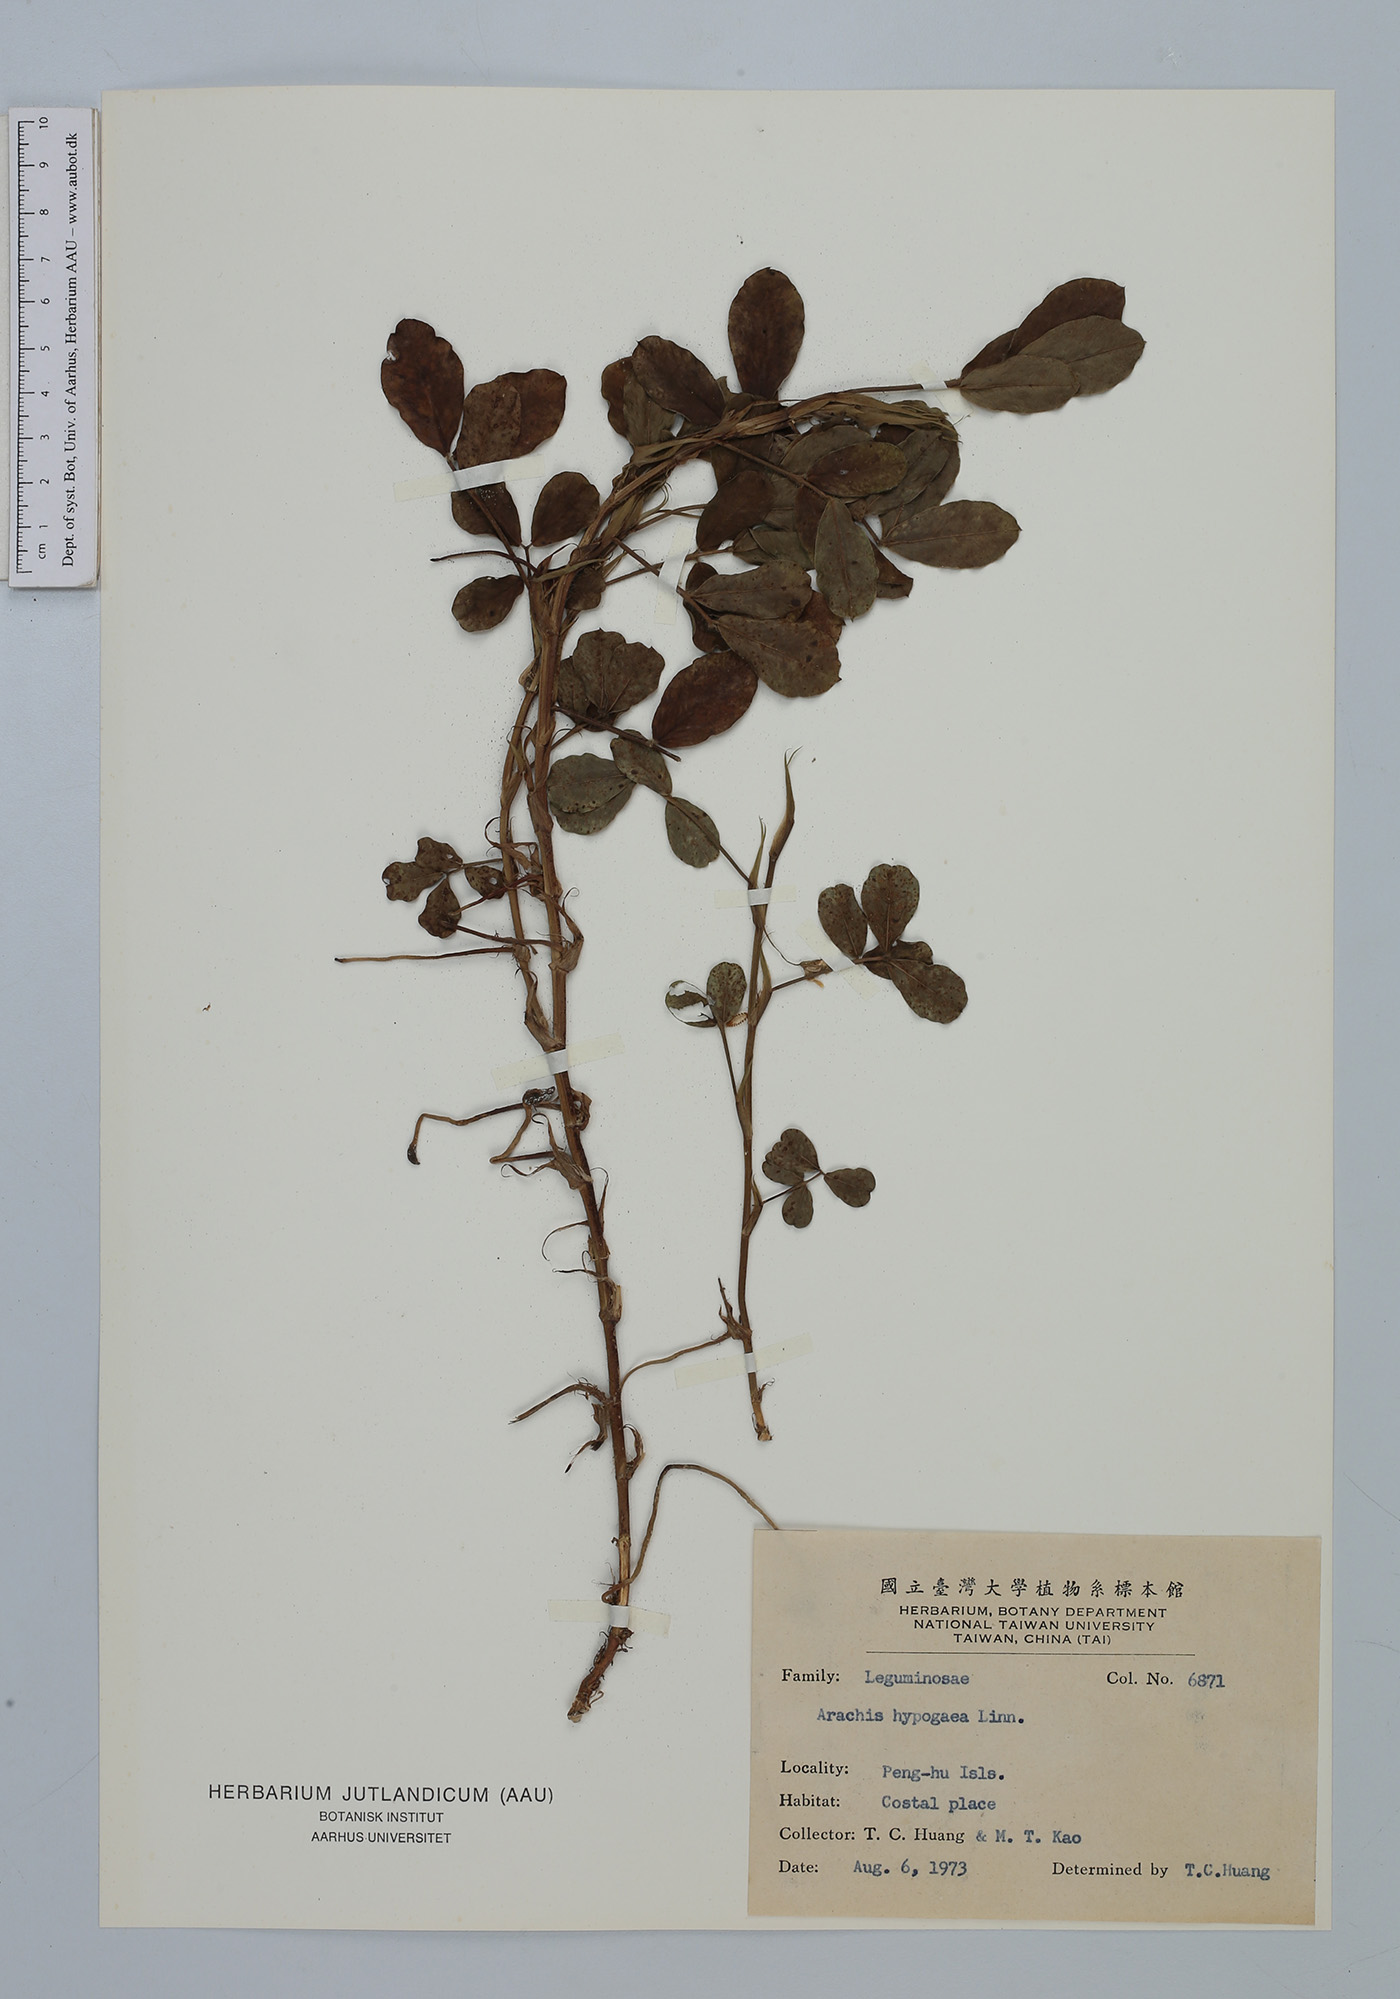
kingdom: Plantae
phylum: Tracheophyta
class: Magnoliopsida
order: Fabales
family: Fabaceae
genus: Arachis
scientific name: Arachis hypogaea
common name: Peanut
